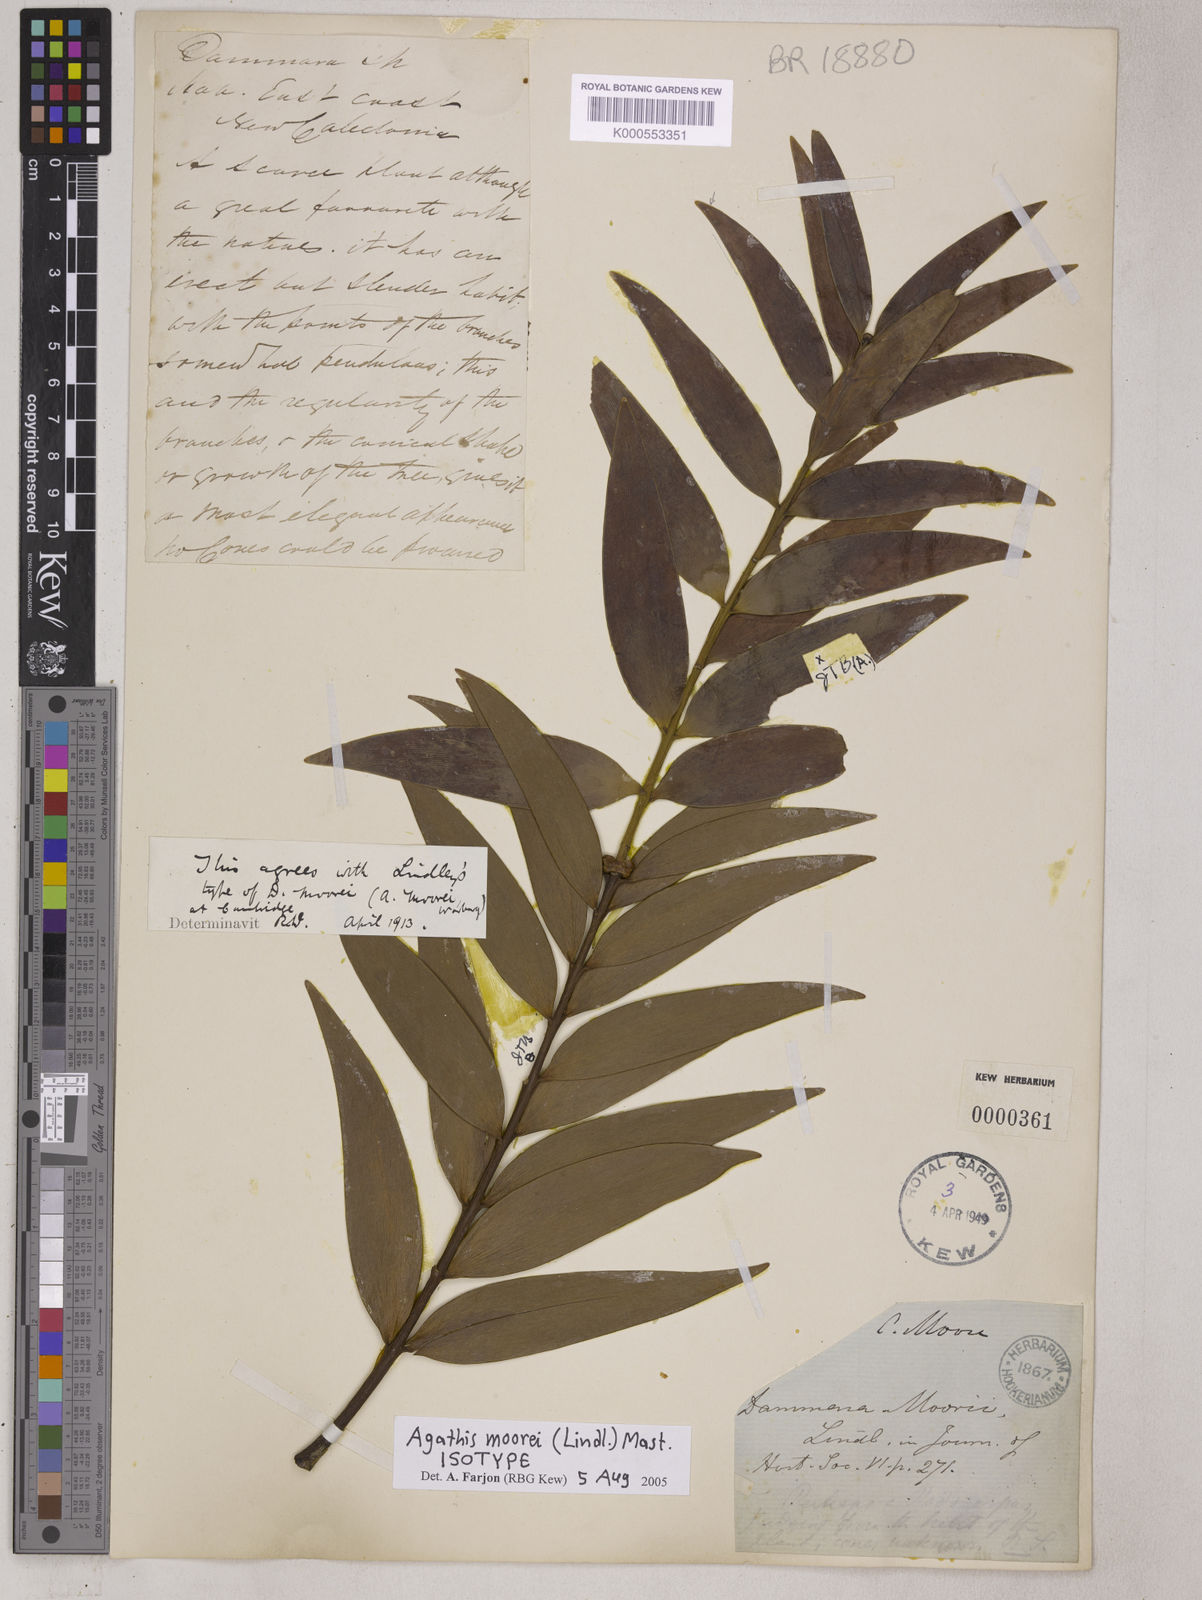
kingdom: Plantae
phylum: Tracheophyta
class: Pinopsida
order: Pinales
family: Araucariaceae
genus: Agathis
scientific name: Agathis moorei
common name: Moore's kauri
